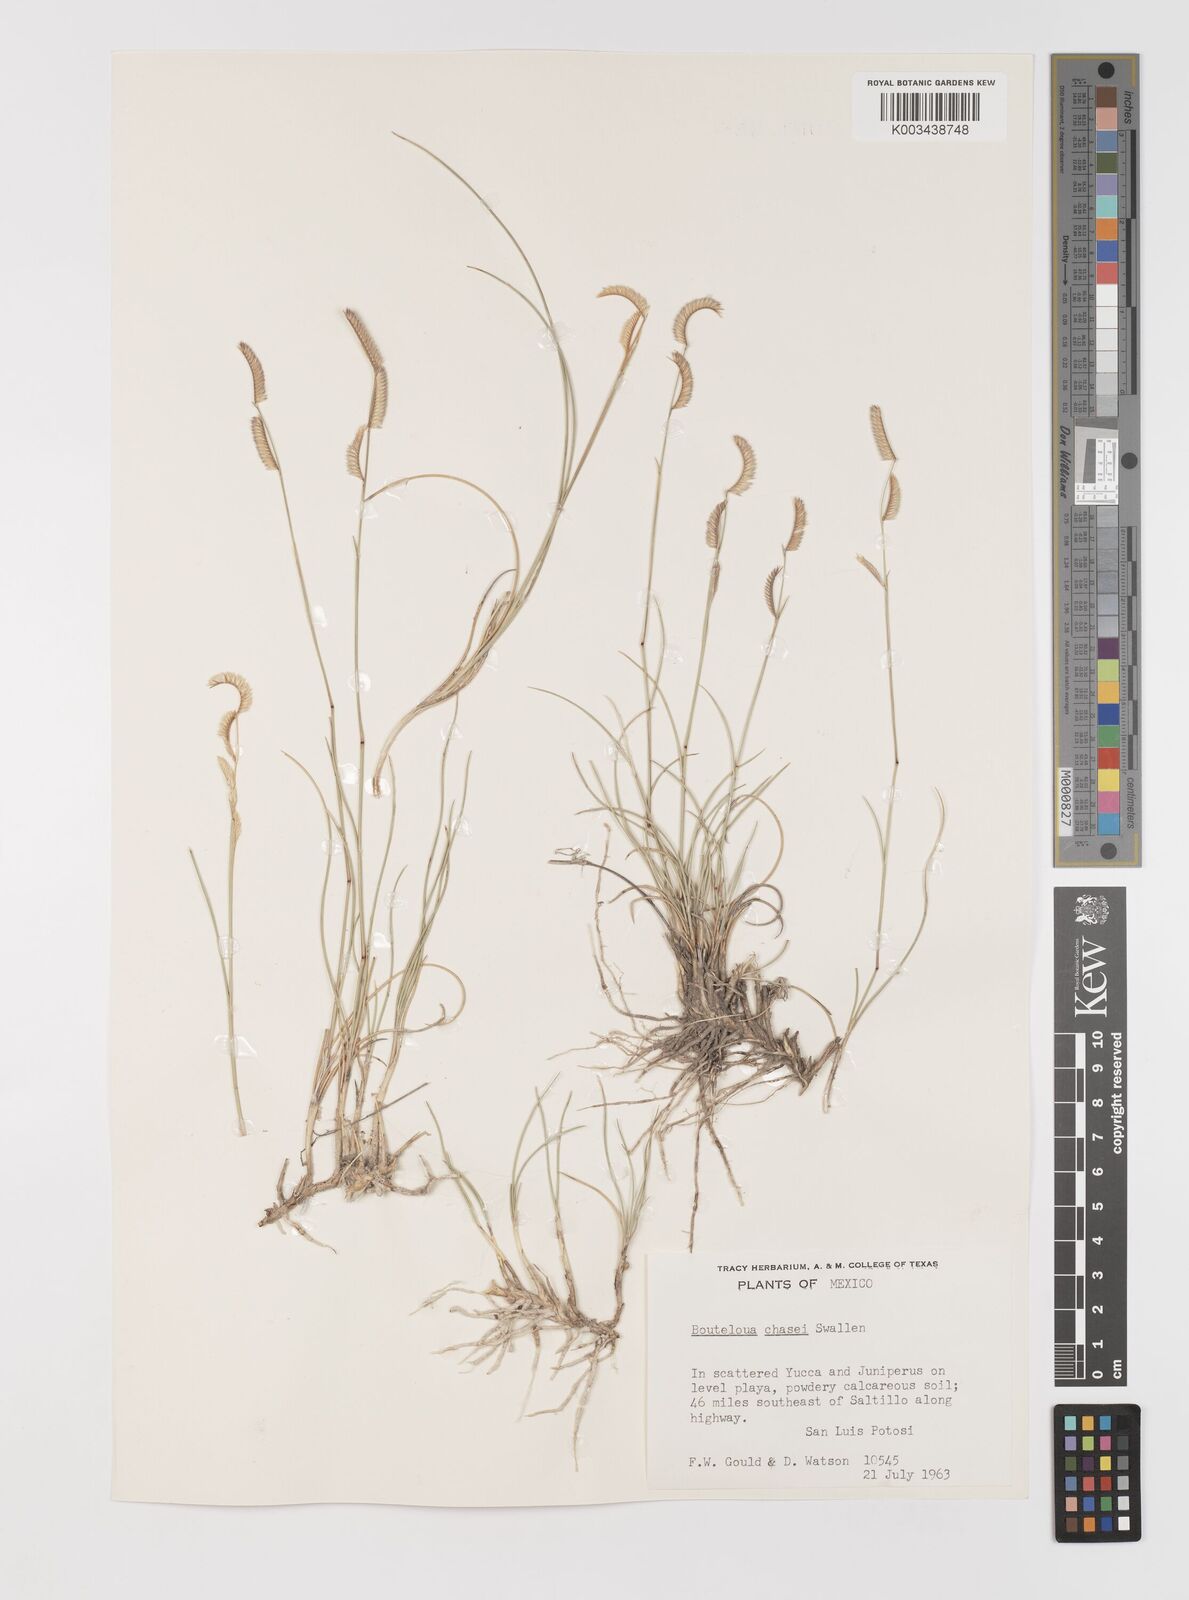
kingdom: Plantae
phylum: Tracheophyta
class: Liliopsida
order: Poales
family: Poaceae
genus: Bouteloua
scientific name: Bouteloua chasei
